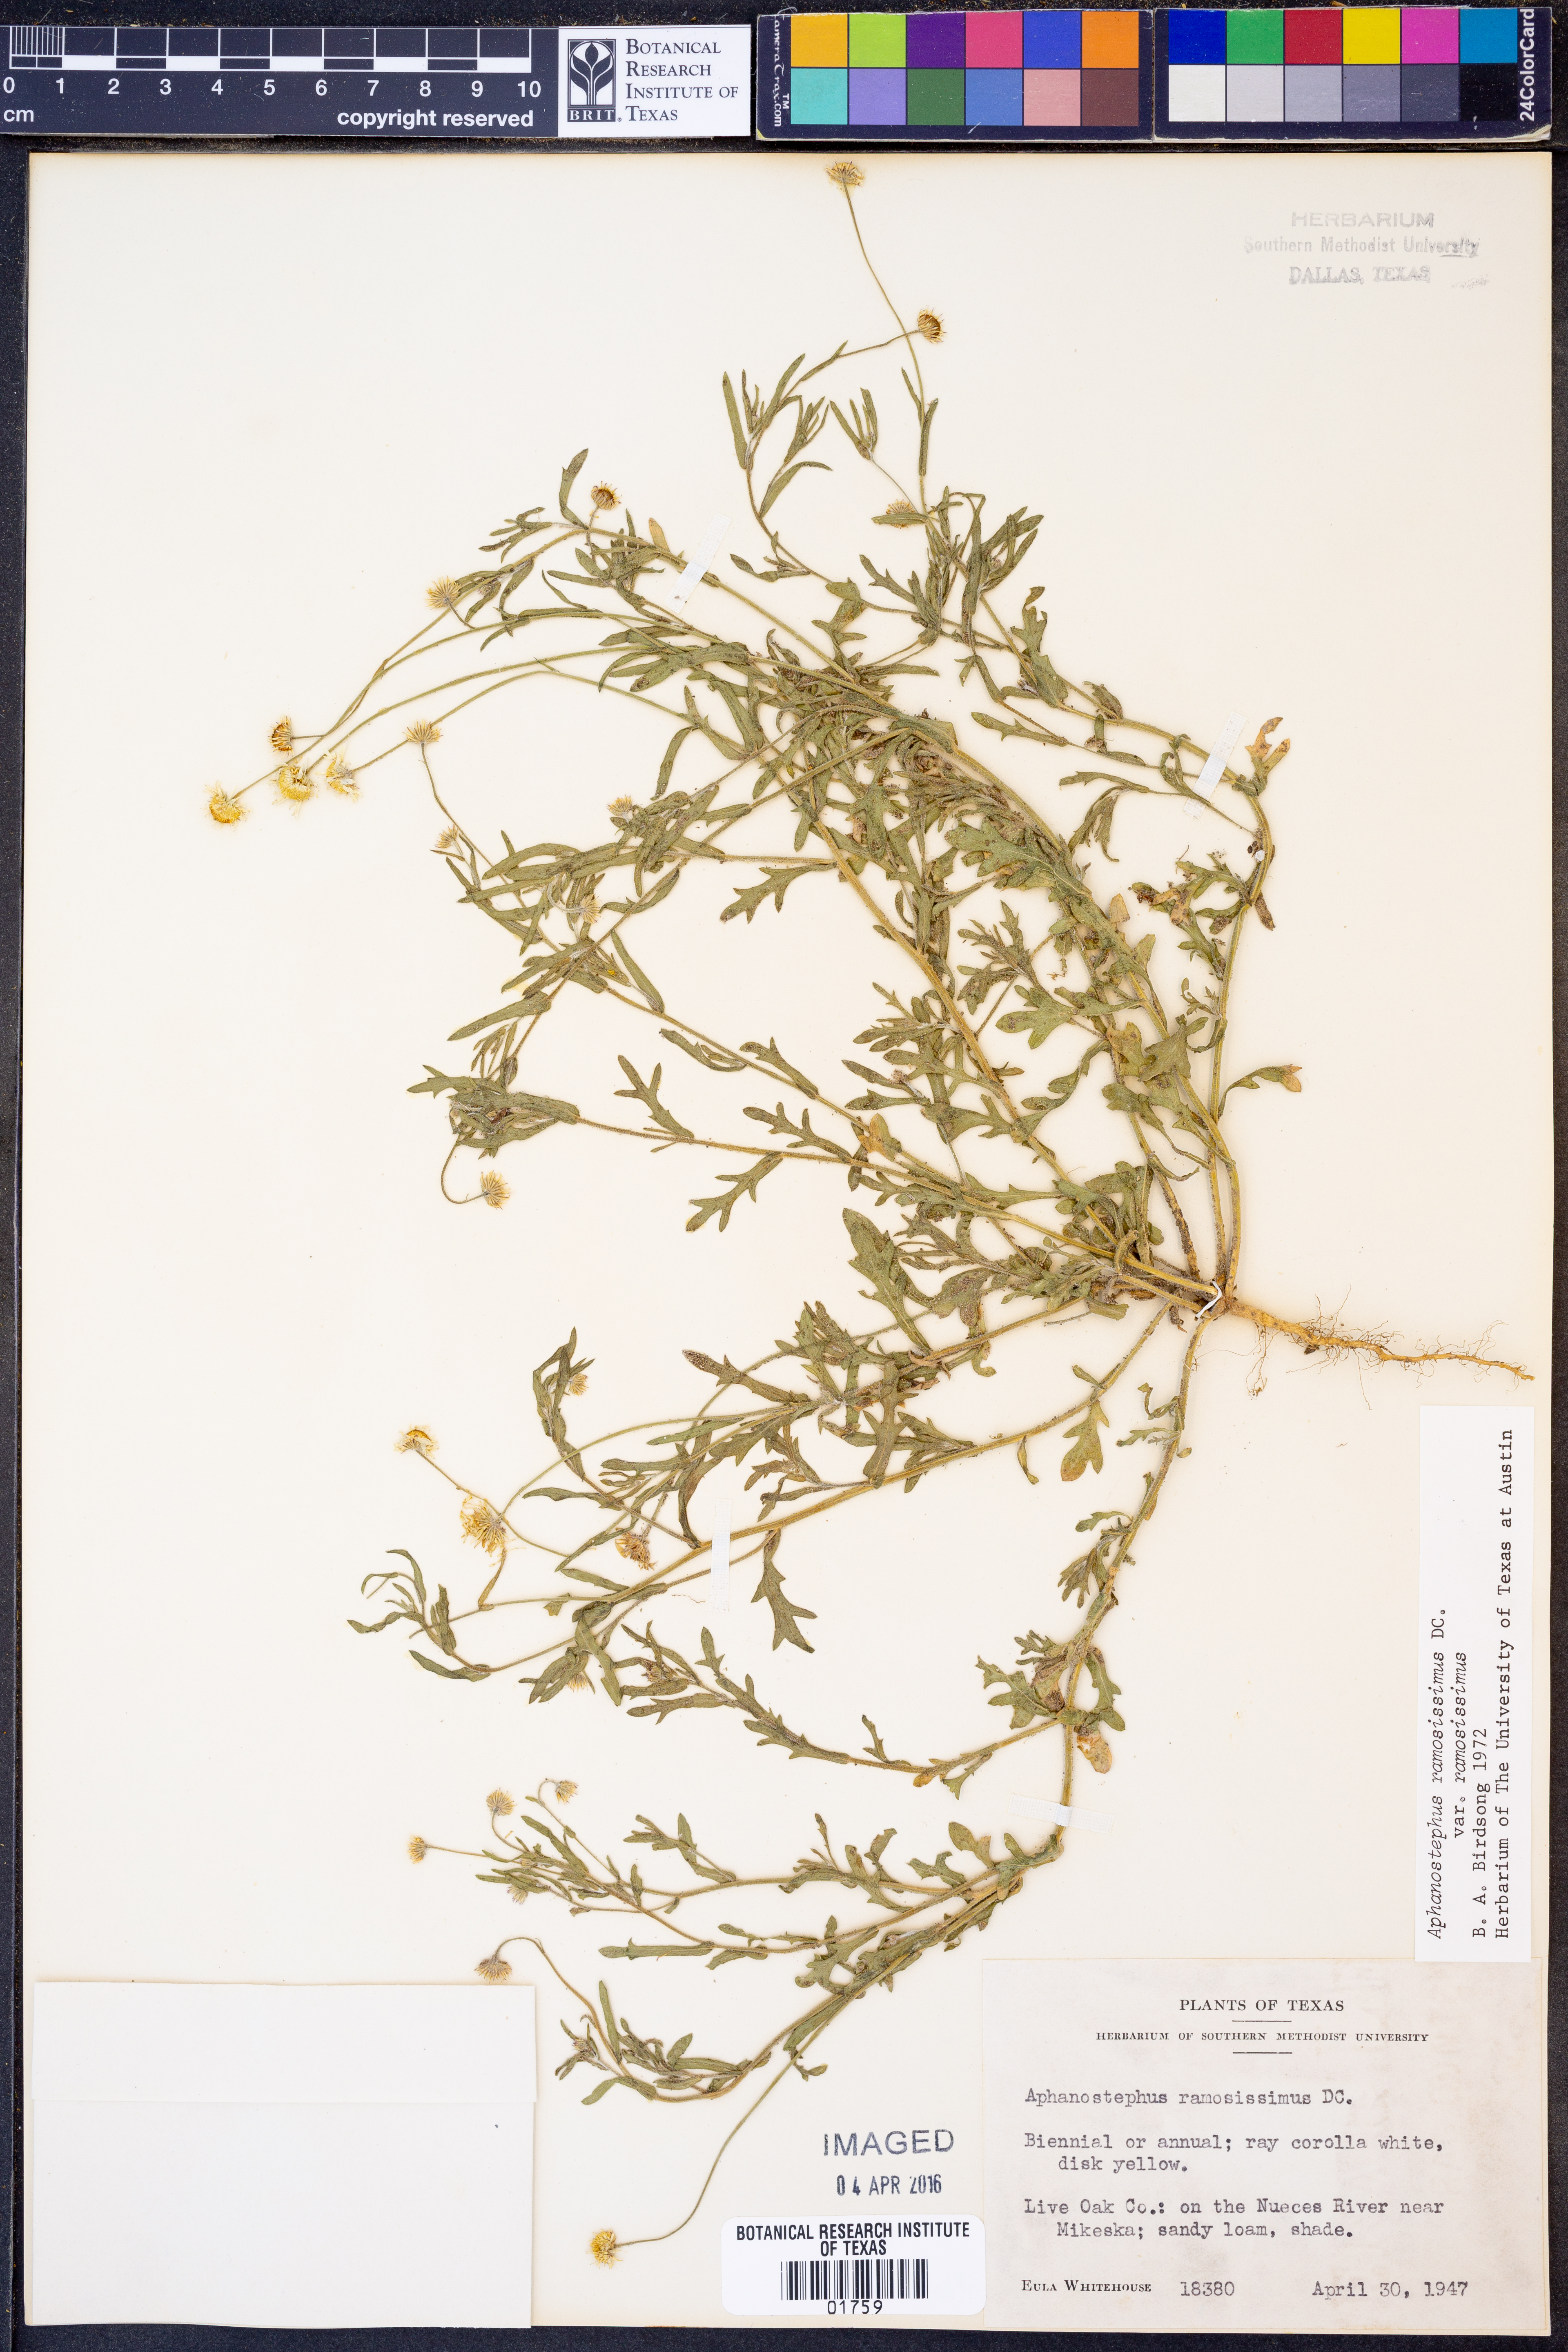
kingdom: Plantae
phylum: Tracheophyta
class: Magnoliopsida
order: Asterales
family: Asteraceae
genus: Aphanostephus
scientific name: Aphanostephus ramosissimus
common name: Plains lazy daisy
